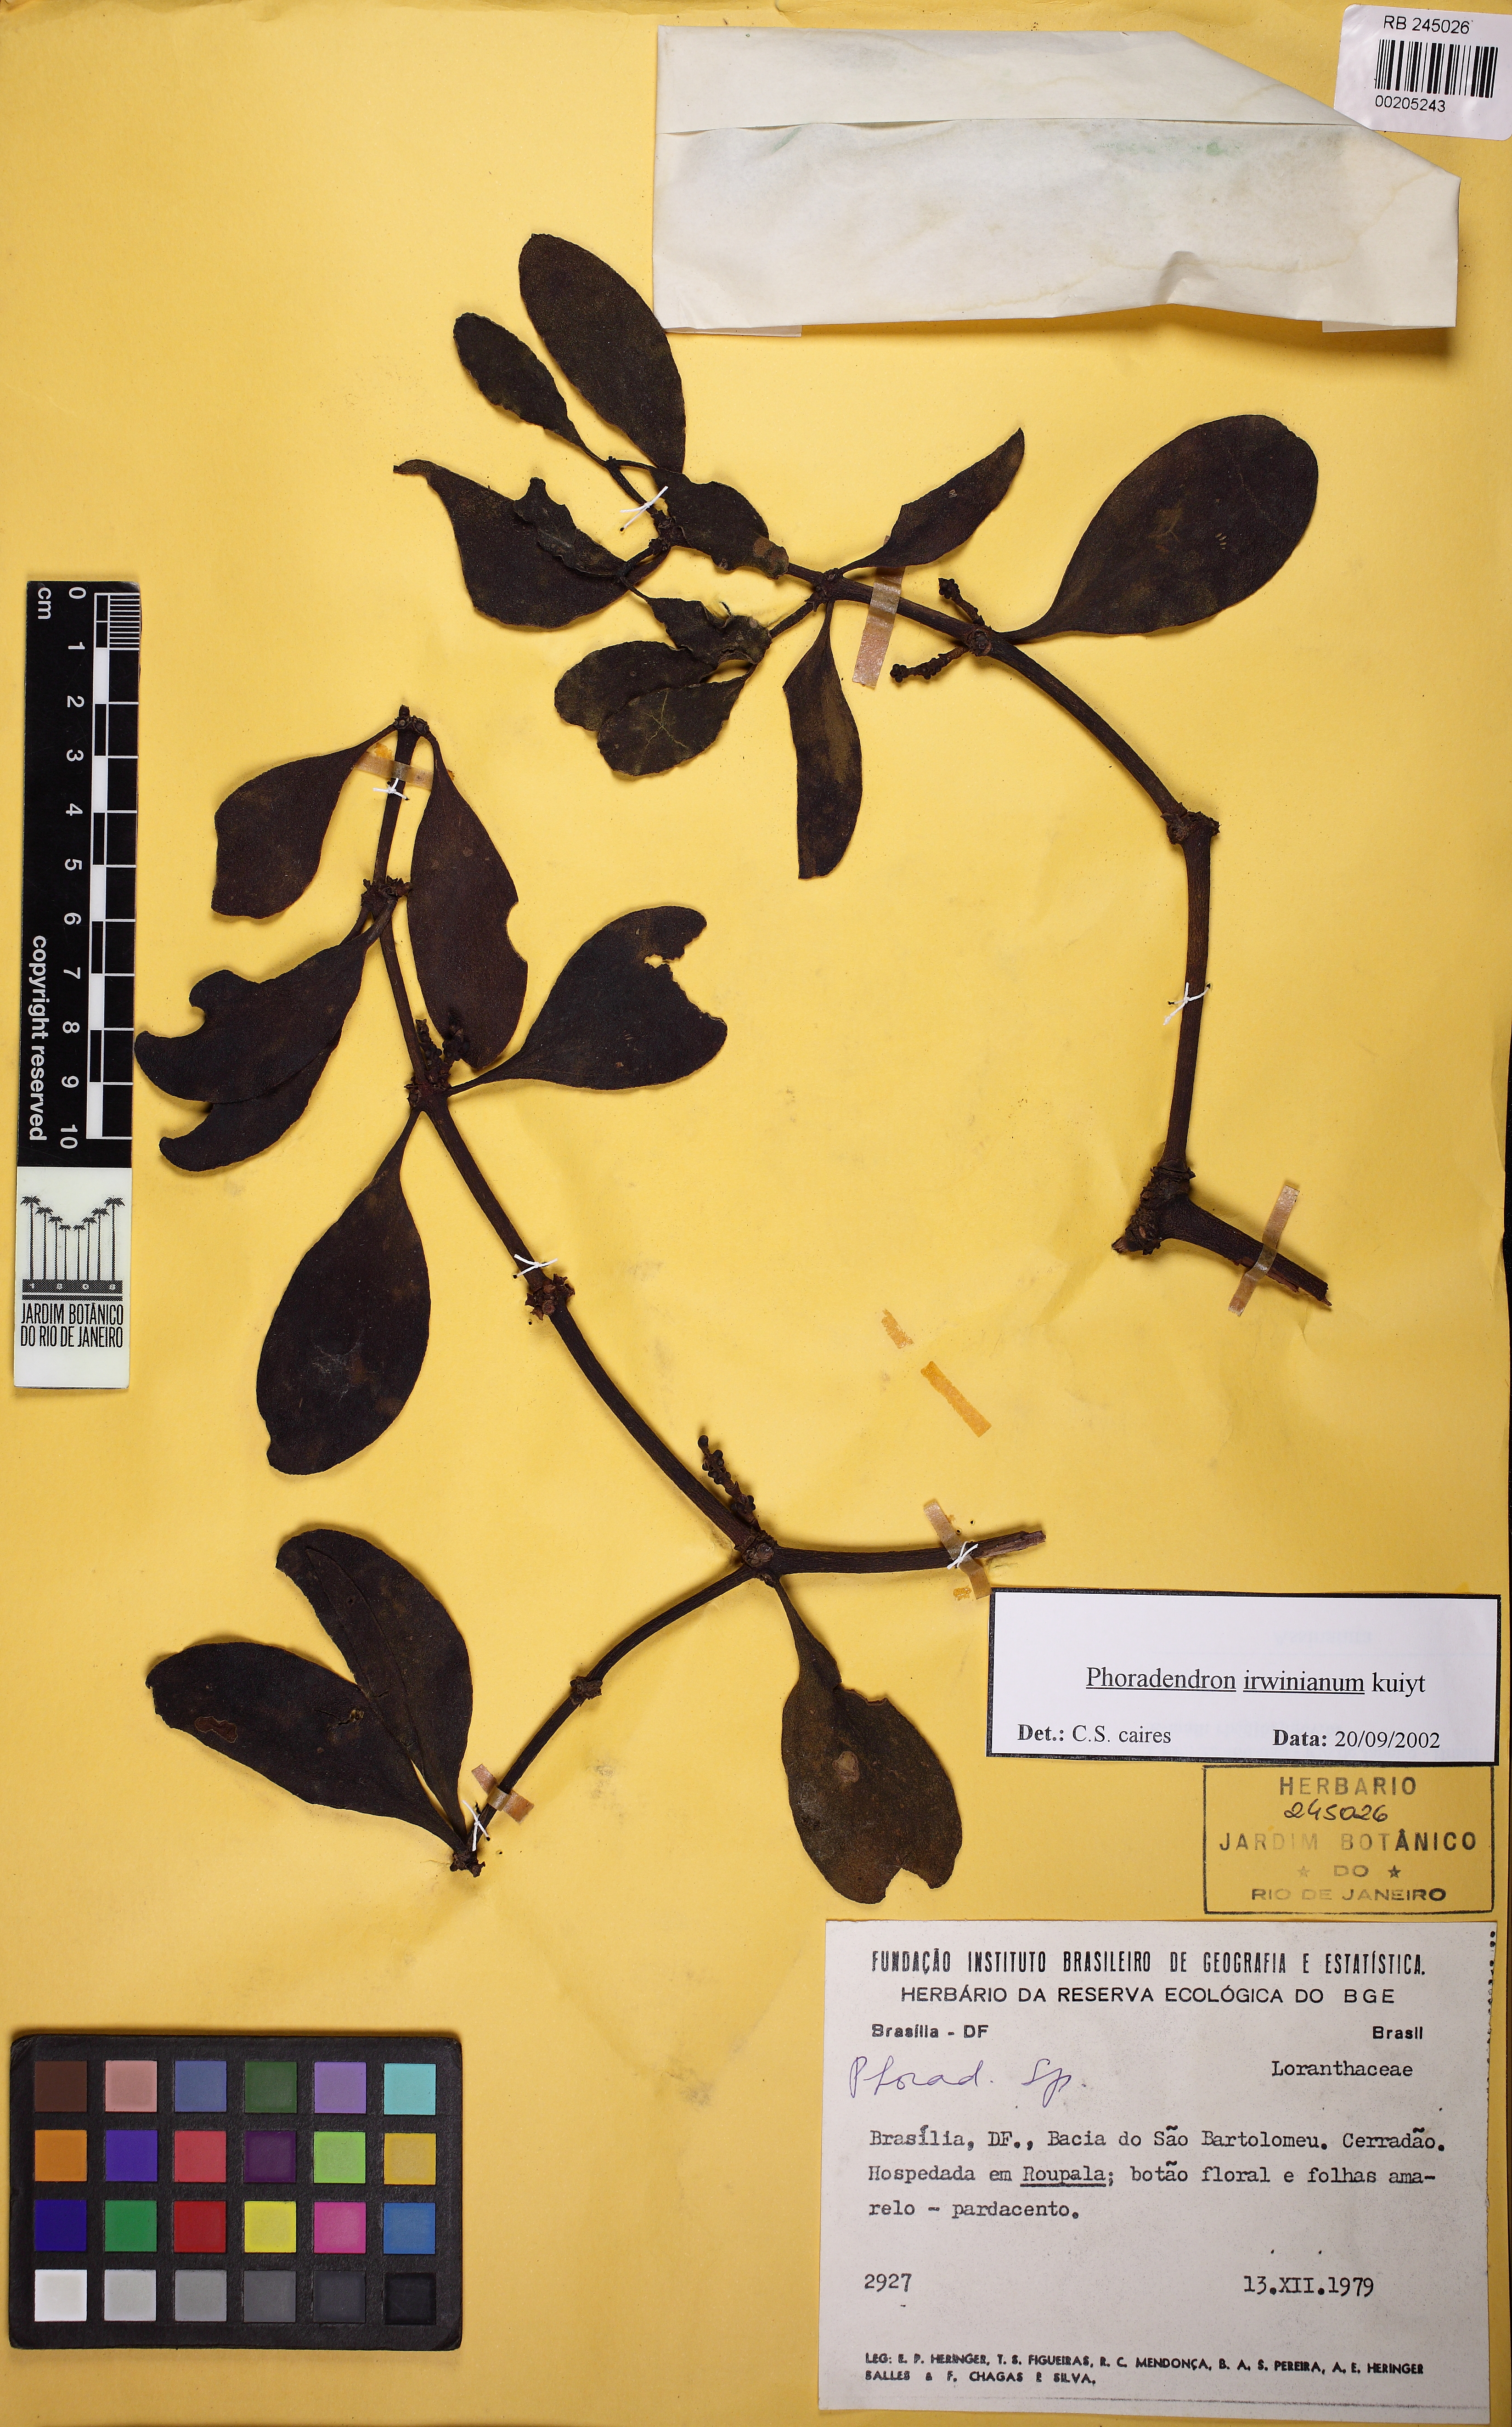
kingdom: Plantae
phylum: Tracheophyta
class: Magnoliopsida
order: Santalales
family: Viscaceae
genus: Phoradendron
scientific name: Phoradendron chrysocladon
